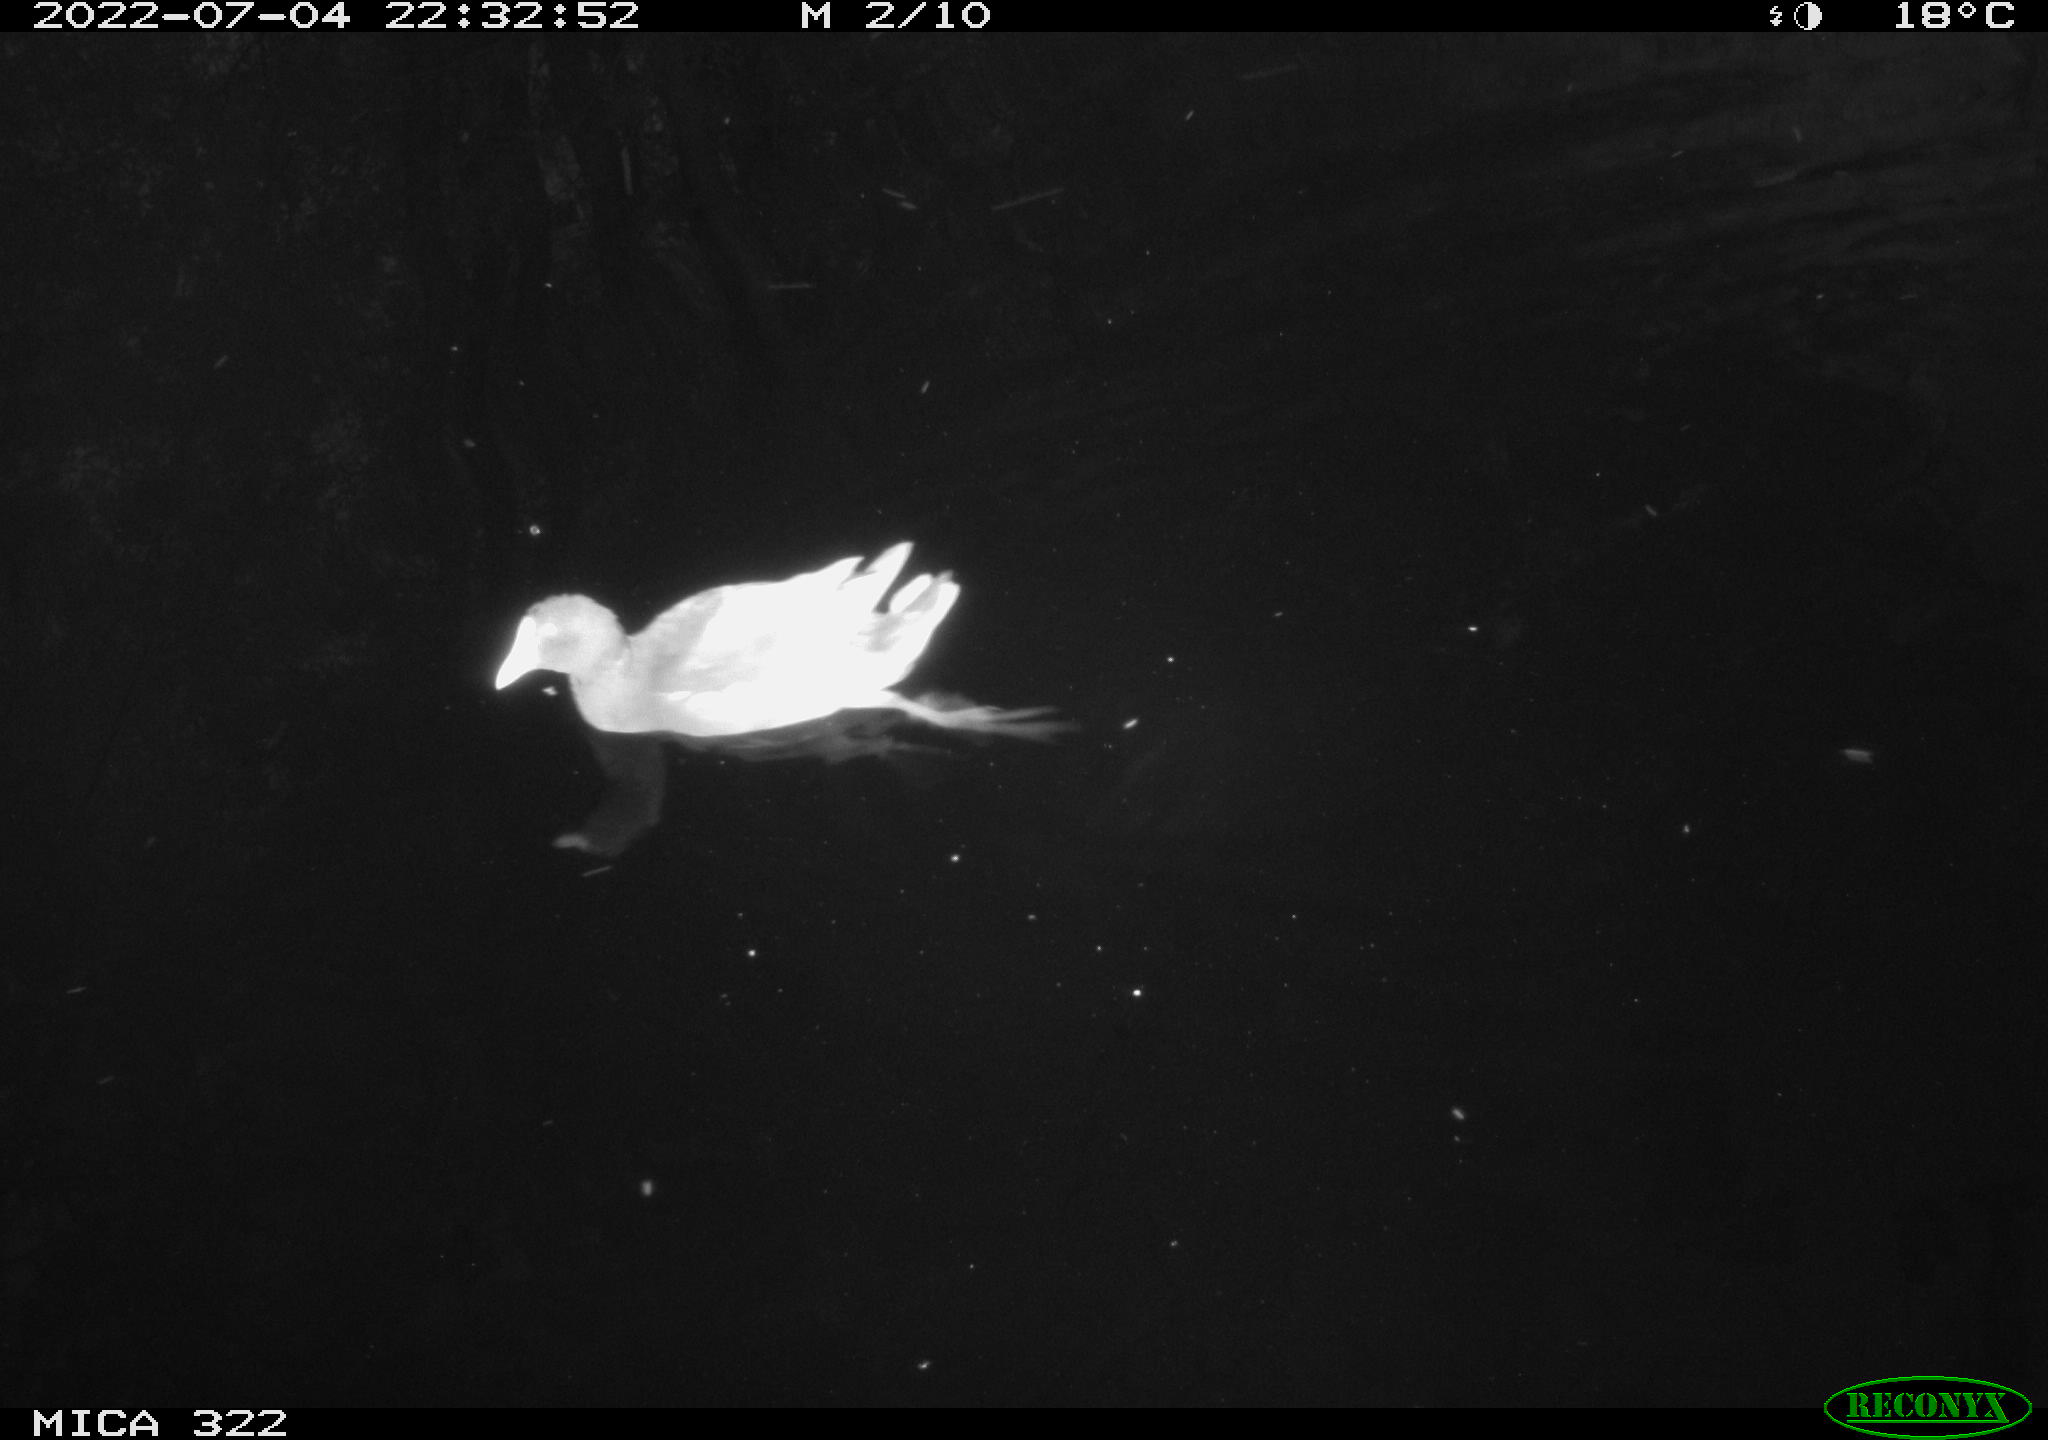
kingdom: Animalia
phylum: Chordata
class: Aves
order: Gruiformes
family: Rallidae
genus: Gallinula
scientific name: Gallinula chloropus
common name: Common moorhen
